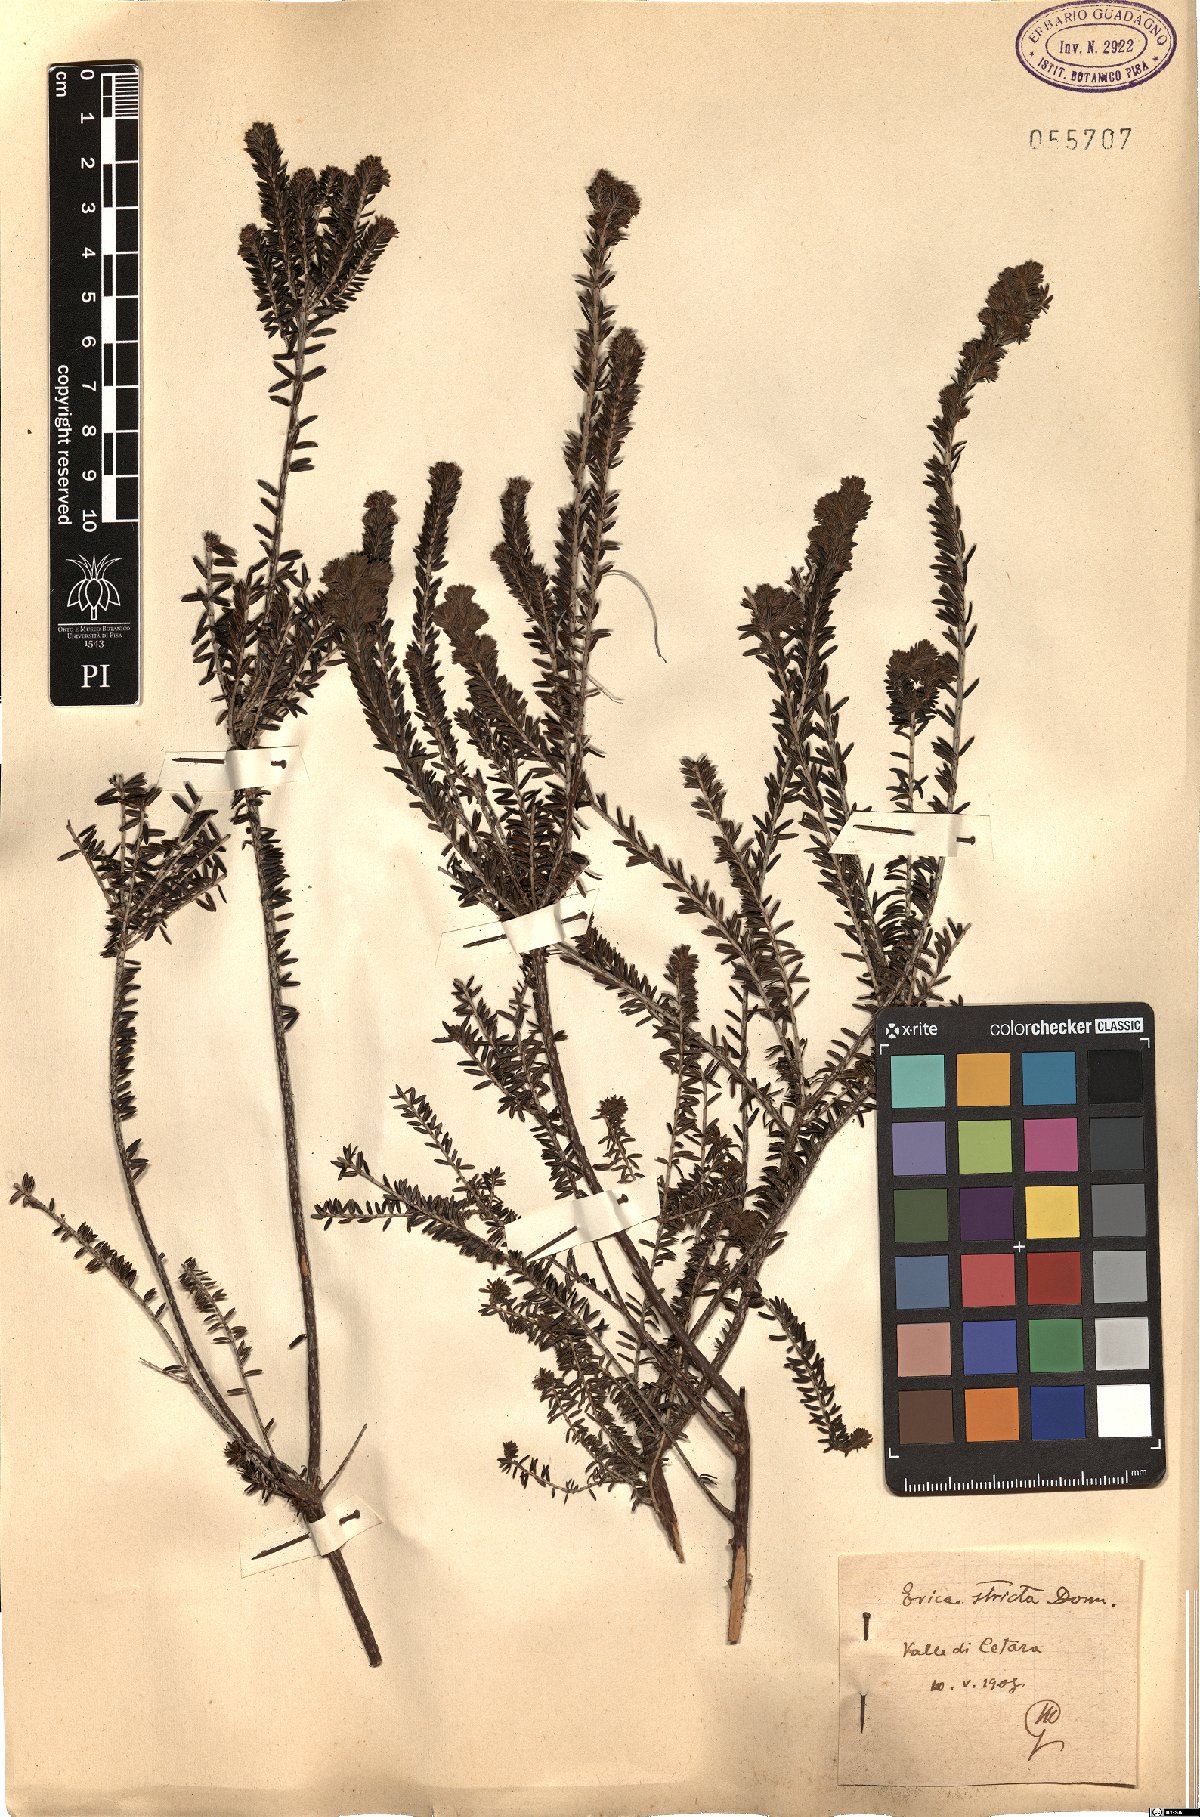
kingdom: Plantae
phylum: Tracheophyta
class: Magnoliopsida
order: Ericales
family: Ericaceae
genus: Erica
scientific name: Erica terminalis
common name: Corsican heath
